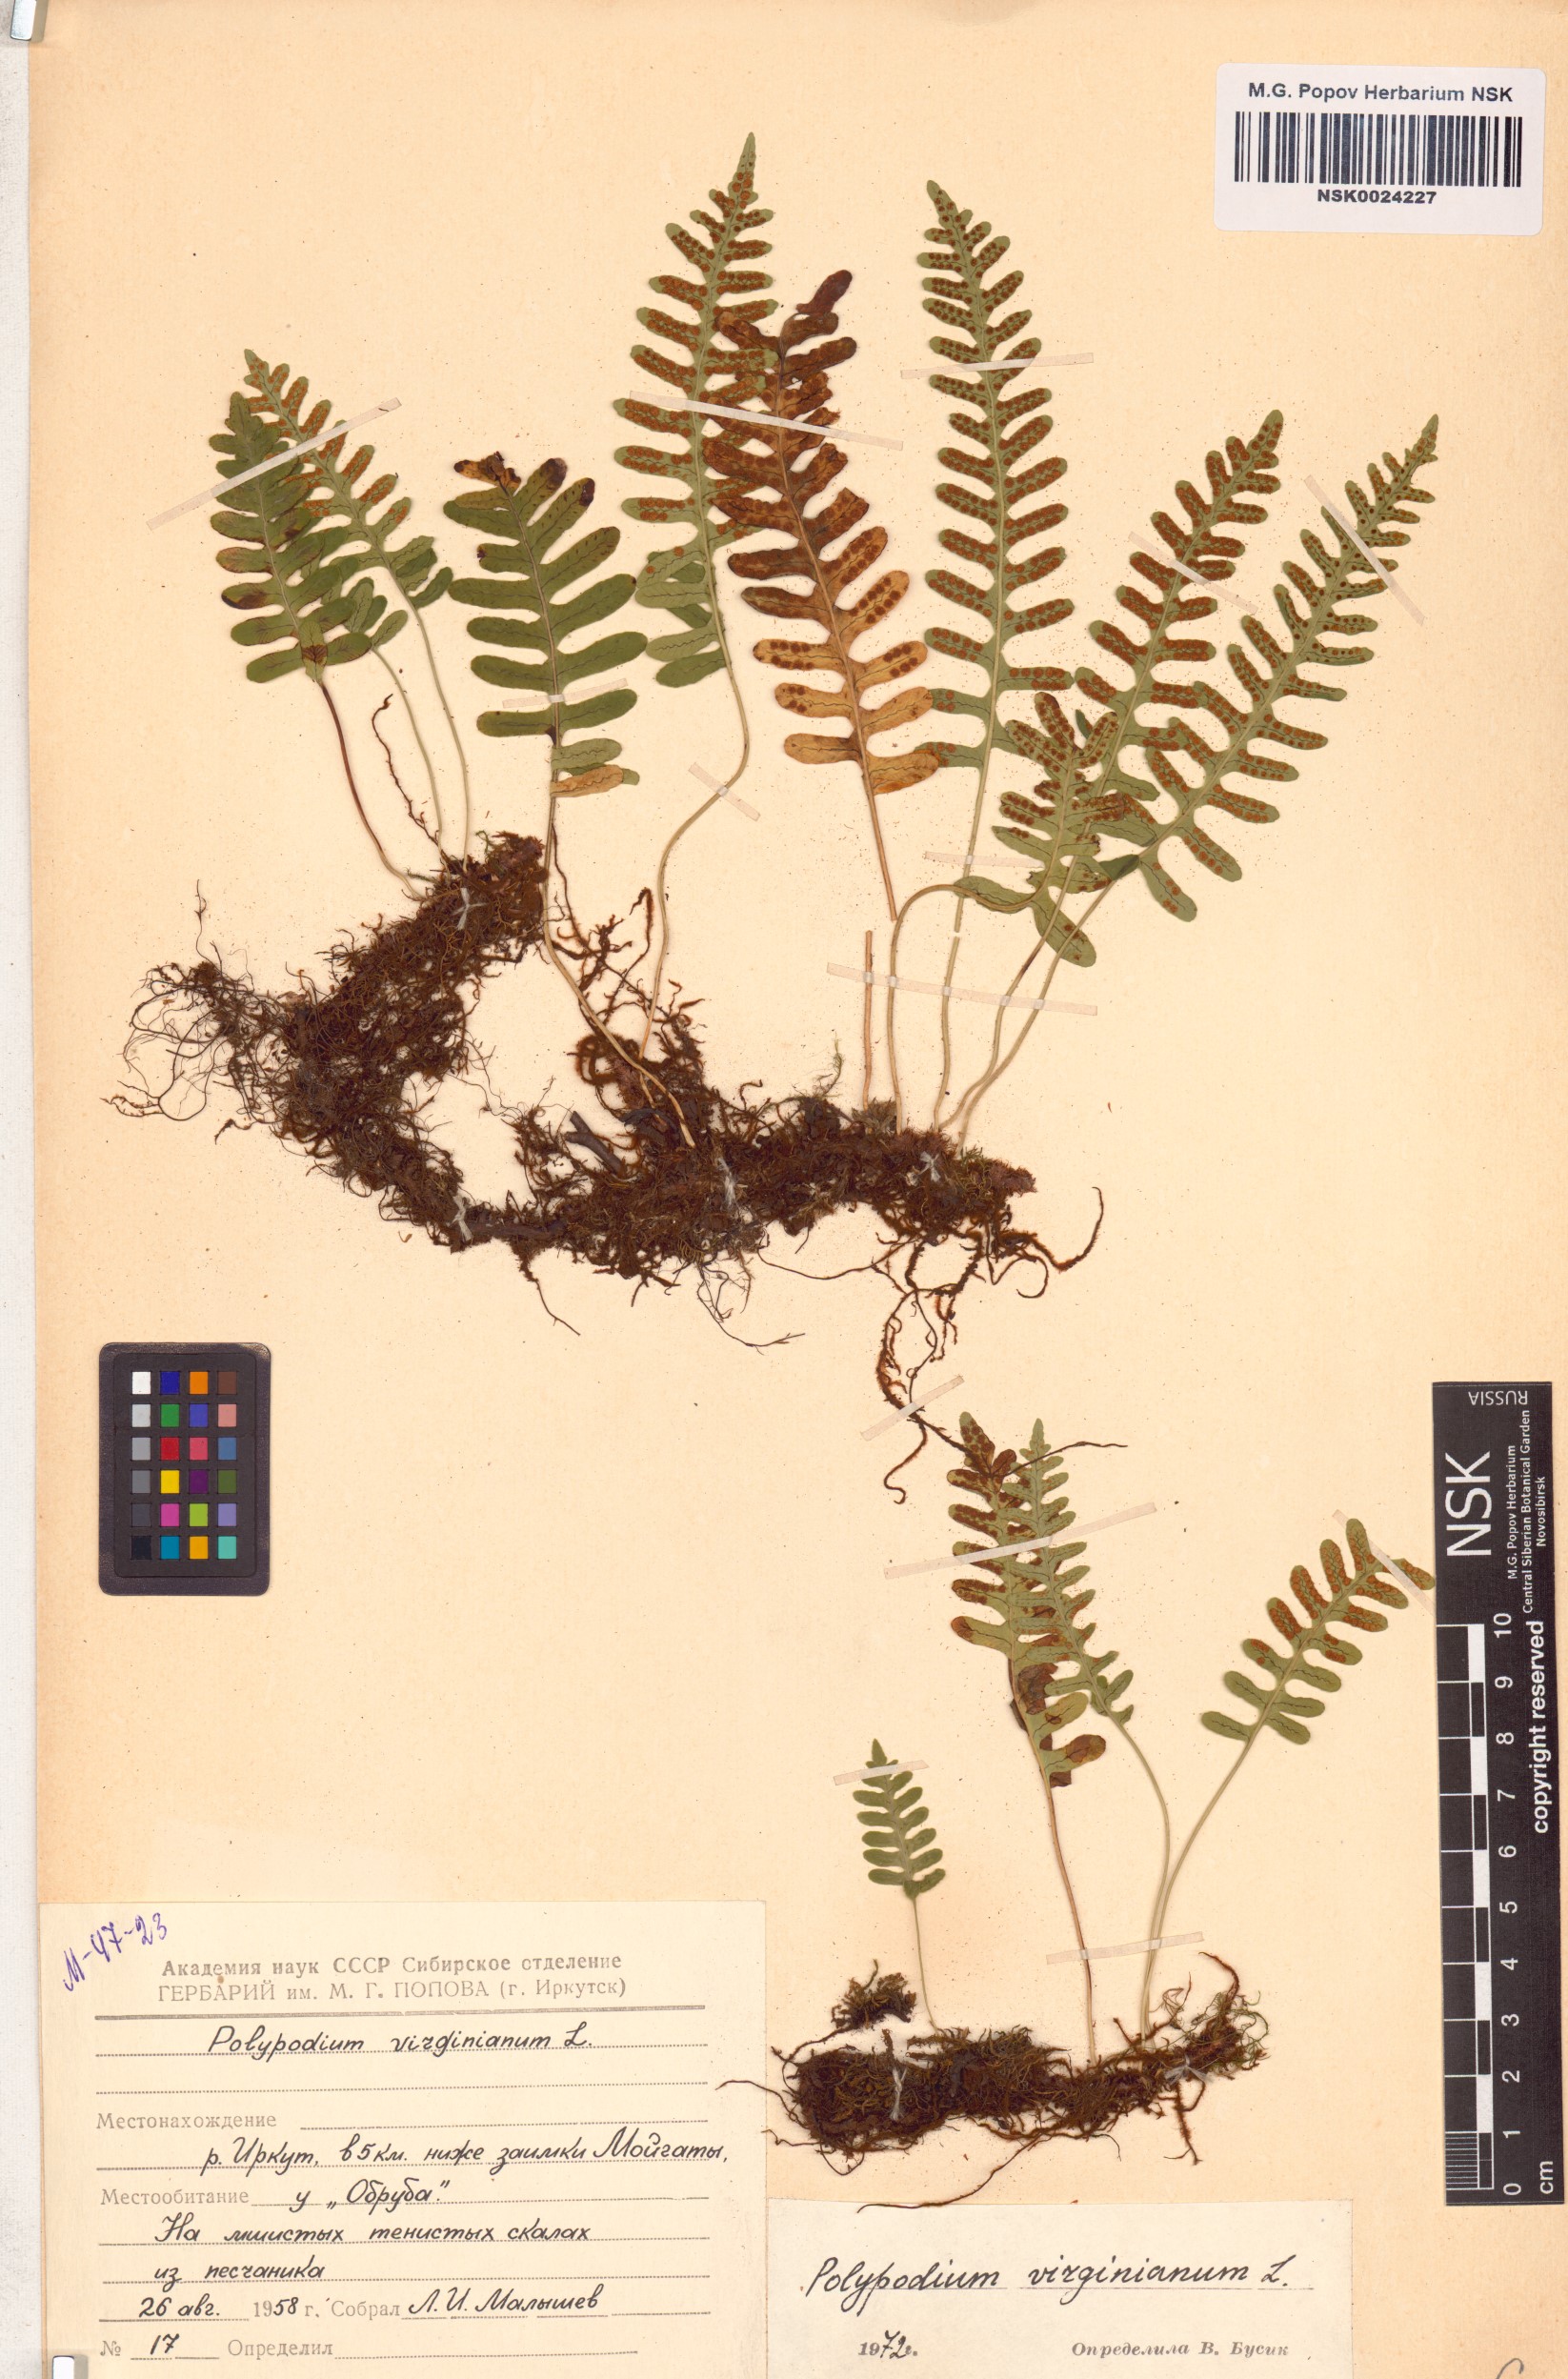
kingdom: Plantae
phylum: Tracheophyta
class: Polypodiopsida
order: Polypodiales
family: Polypodiaceae
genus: Polypodium
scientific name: Polypodium virginianum
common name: American wall fern
